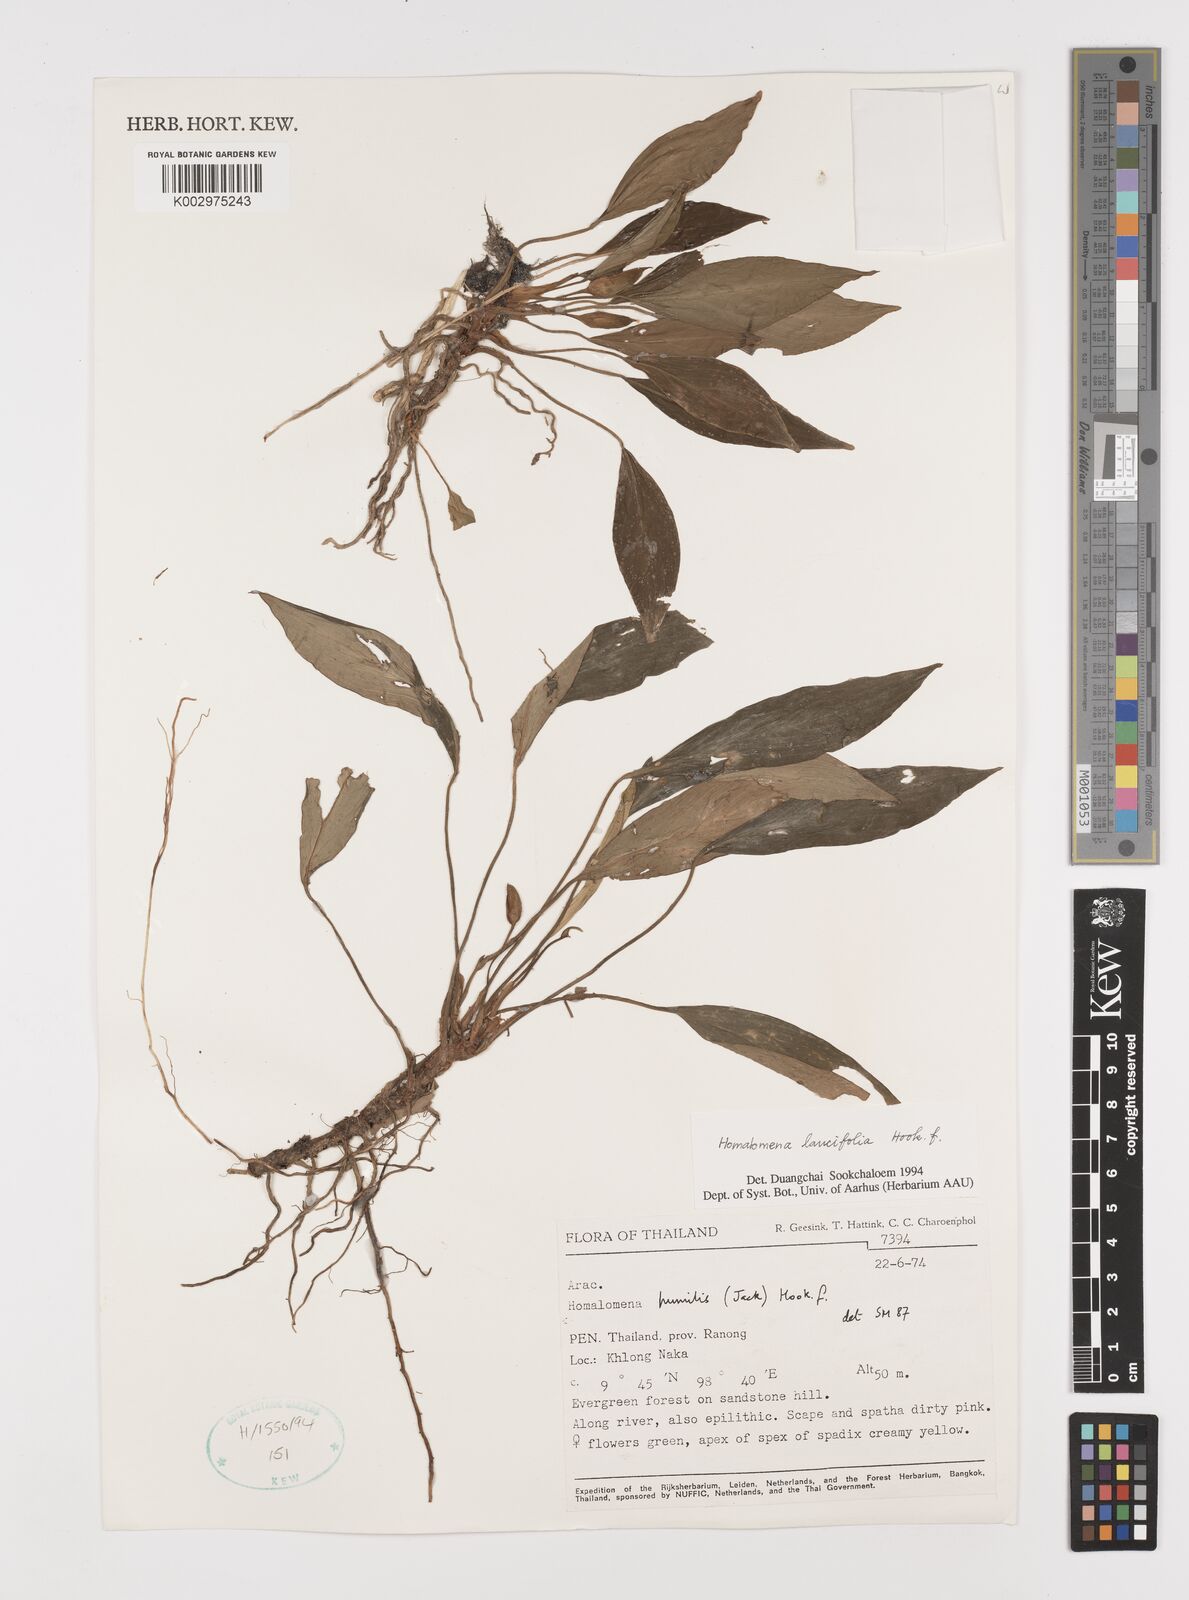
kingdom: Plantae
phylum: Tracheophyta
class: Liliopsida
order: Alismatales
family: Araceae
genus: Homalomena
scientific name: Homalomena lancifolia
